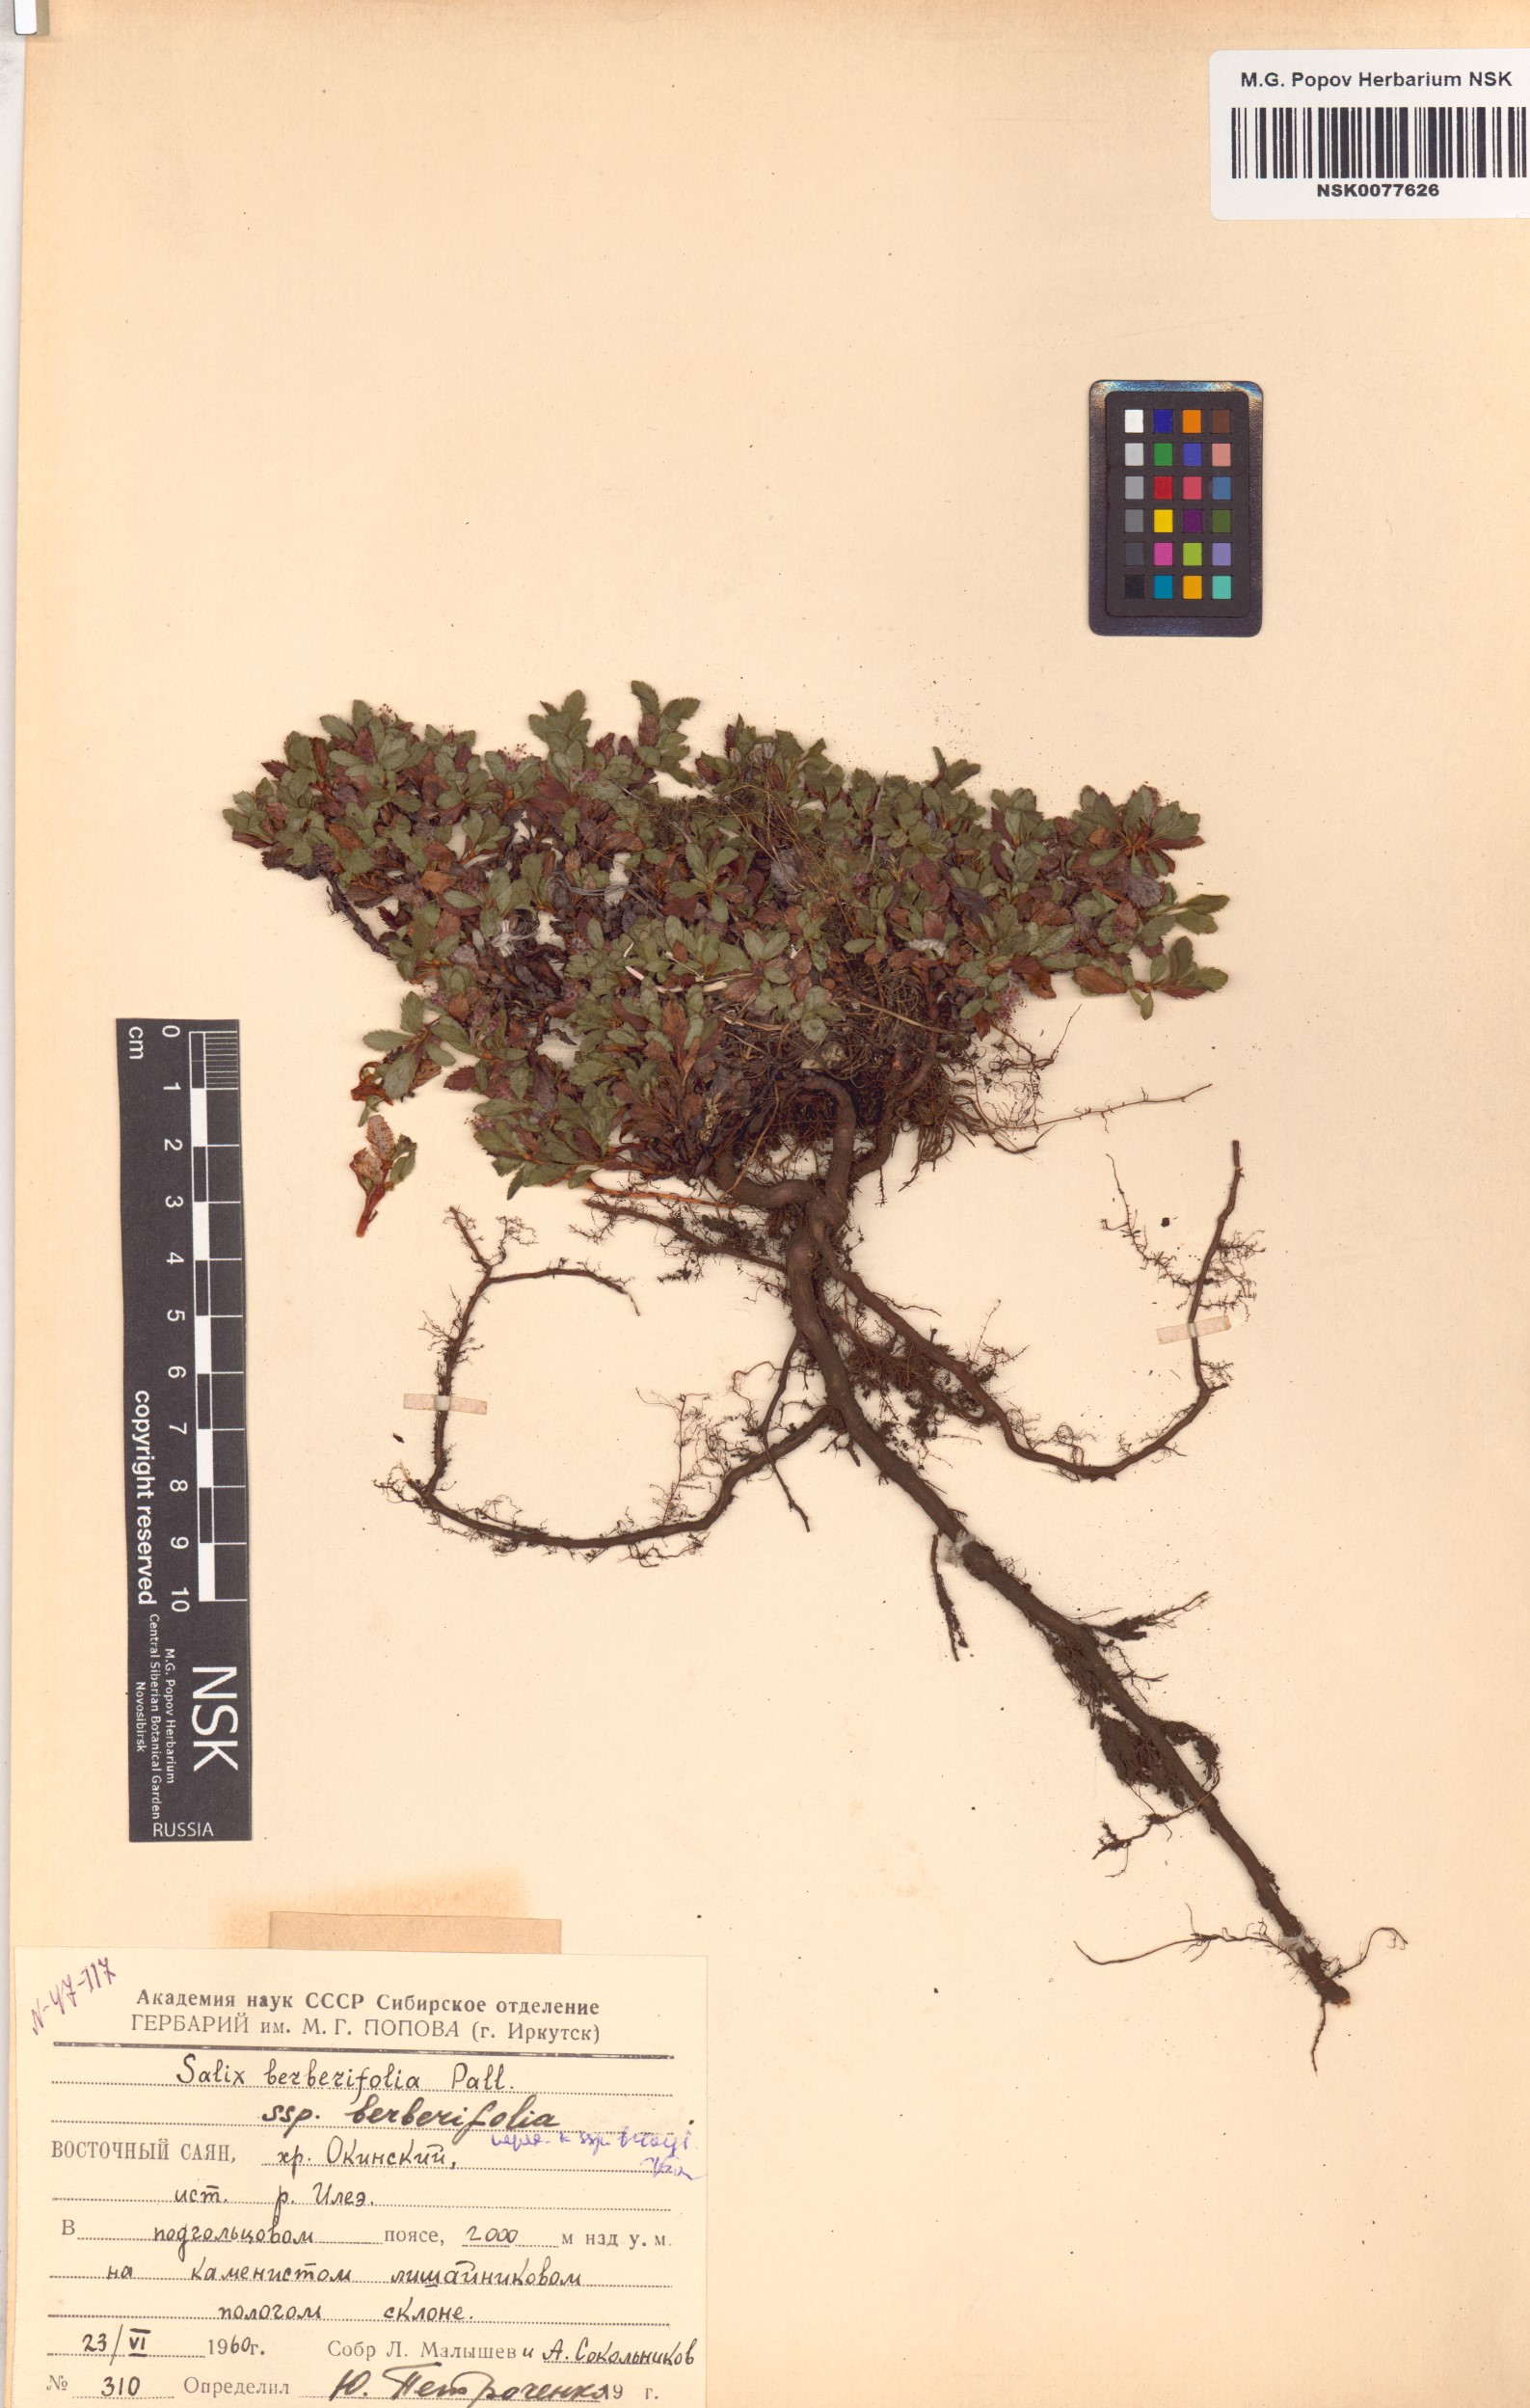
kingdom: Plantae
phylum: Tracheophyta
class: Magnoliopsida
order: Malpighiales
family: Salicaceae
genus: Salix
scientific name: Salix berberifolia
